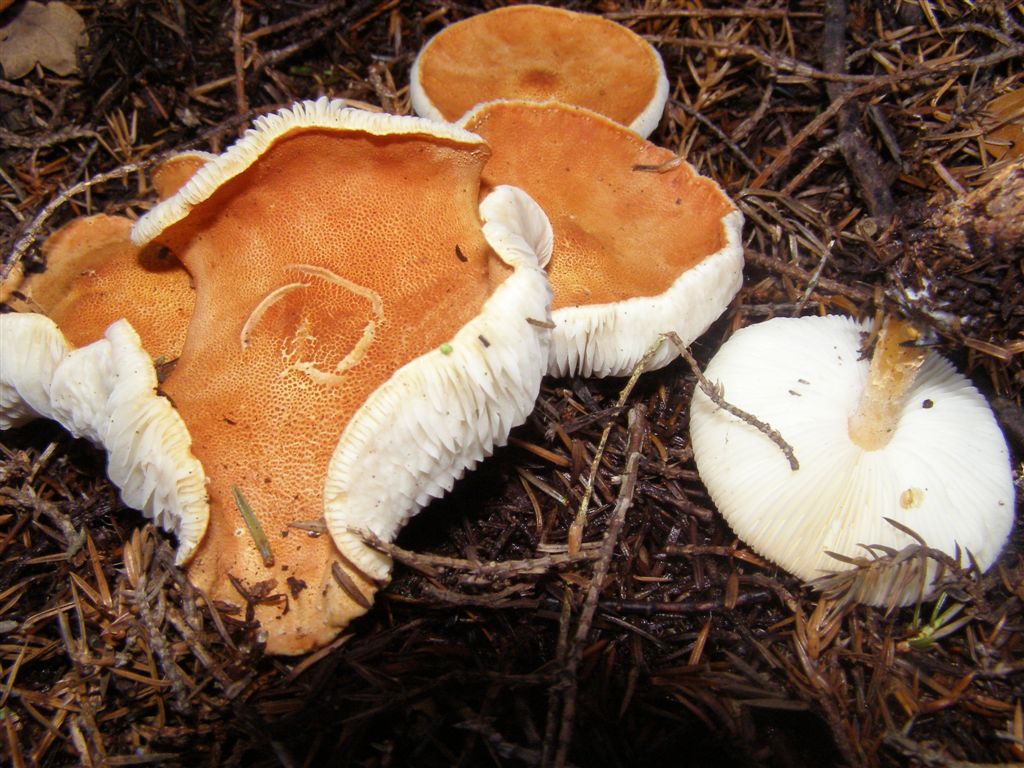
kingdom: Fungi
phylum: Basidiomycota
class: Agaricomycetes
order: Agaricales
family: Agaricaceae
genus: Cystodermella
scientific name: Cystodermella cinnabarina
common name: cinnober-grynhat
